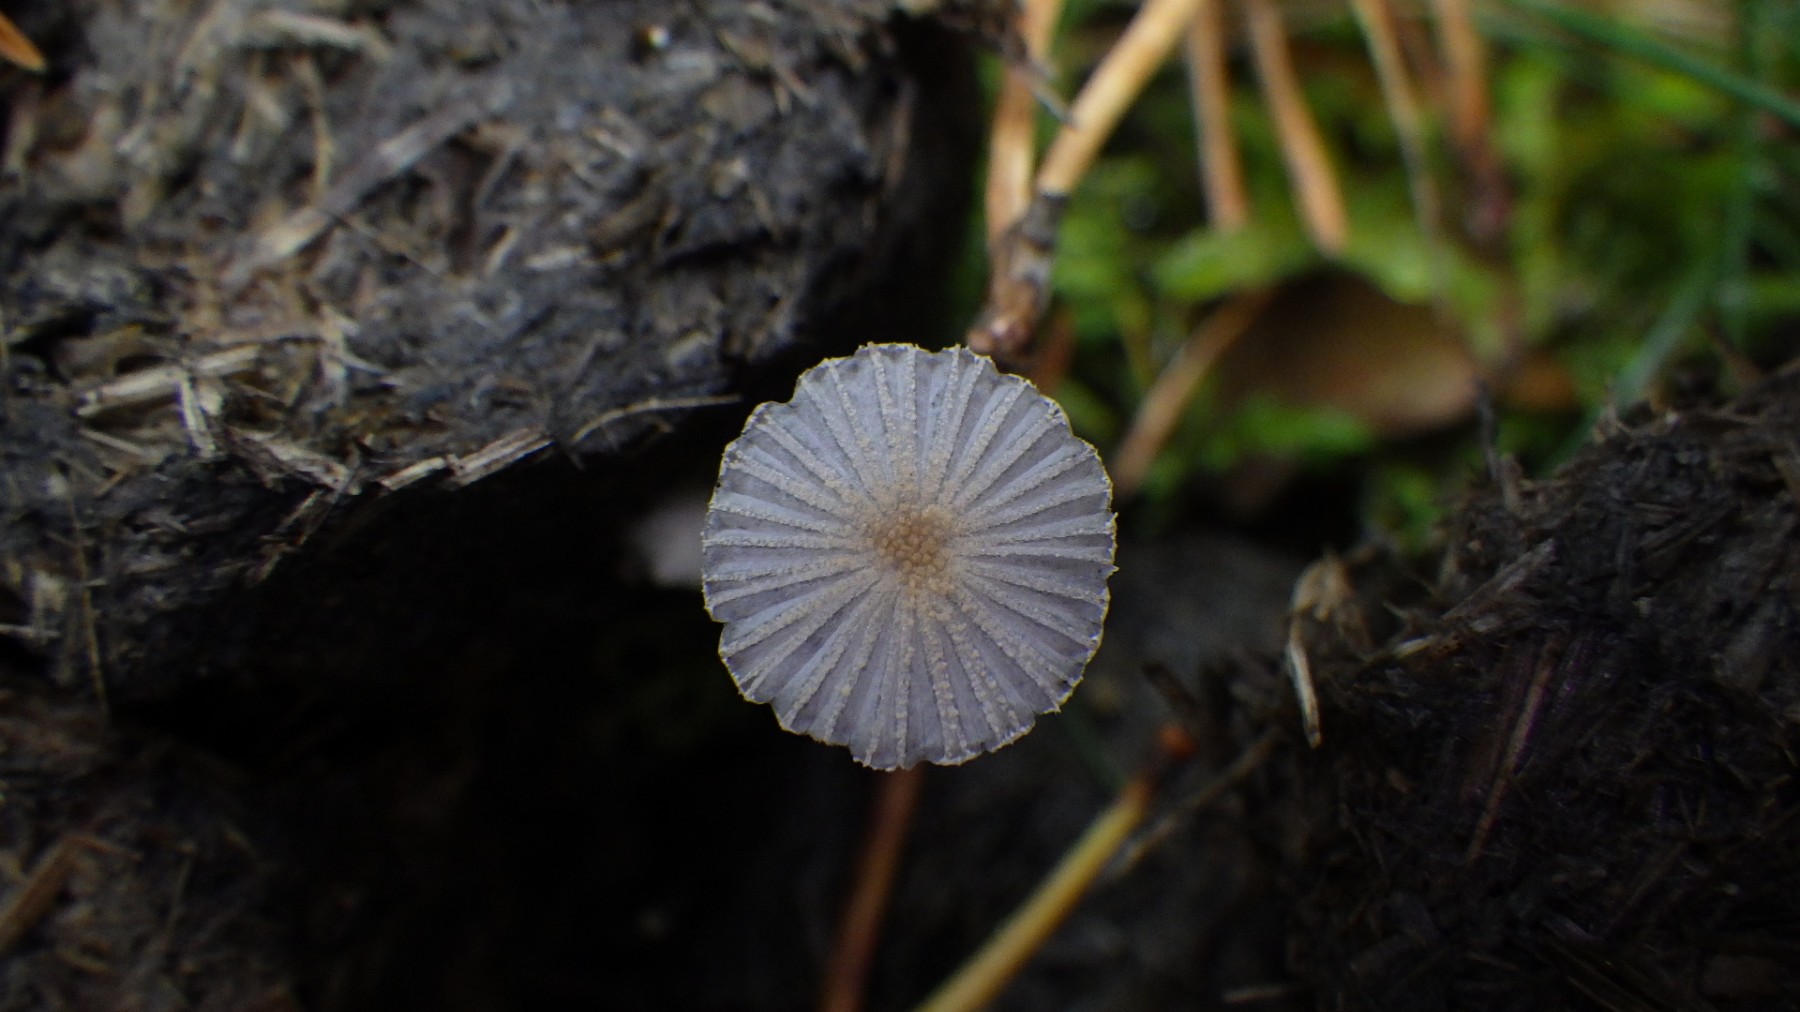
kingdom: Fungi
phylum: Basidiomycota
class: Agaricomycetes
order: Agaricales
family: Psathyrellaceae
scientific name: Psathyrellaceae
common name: mørkhatfamilien
